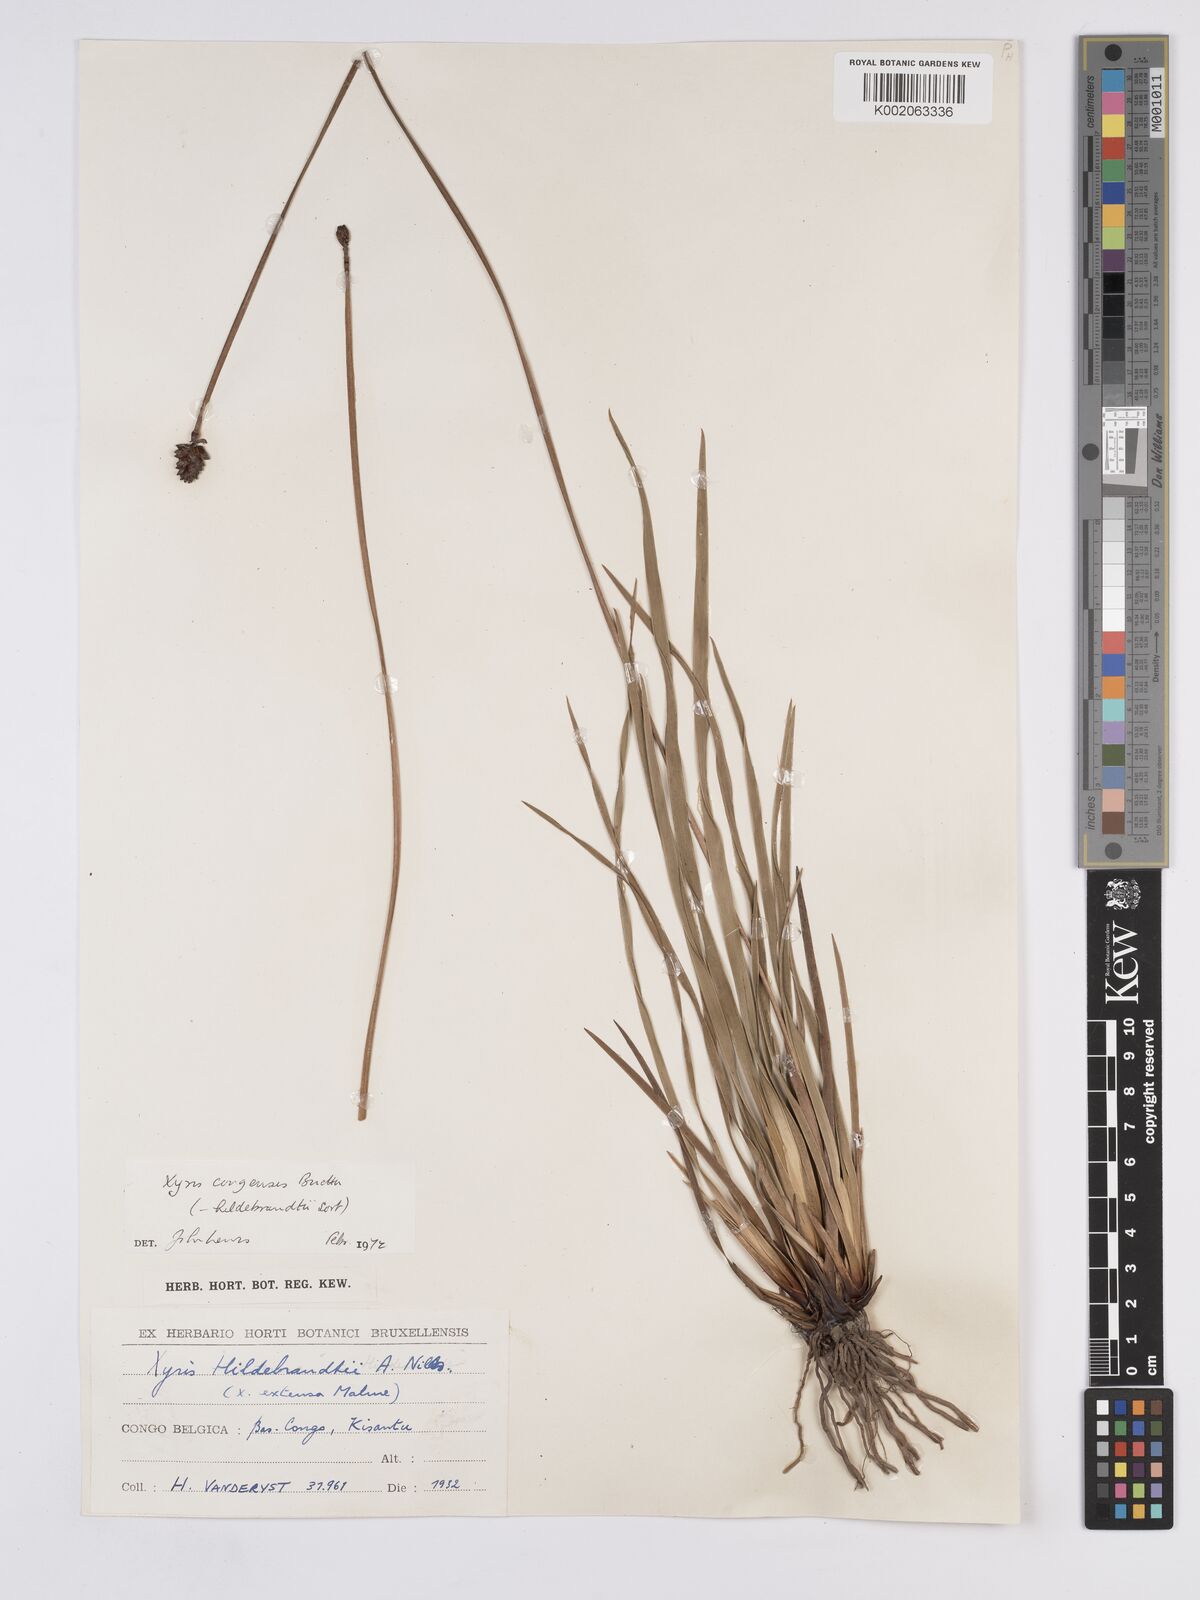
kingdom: Plantae
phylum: Tracheophyta
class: Liliopsida
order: Poales
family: Xyridaceae
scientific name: Xyridaceae
